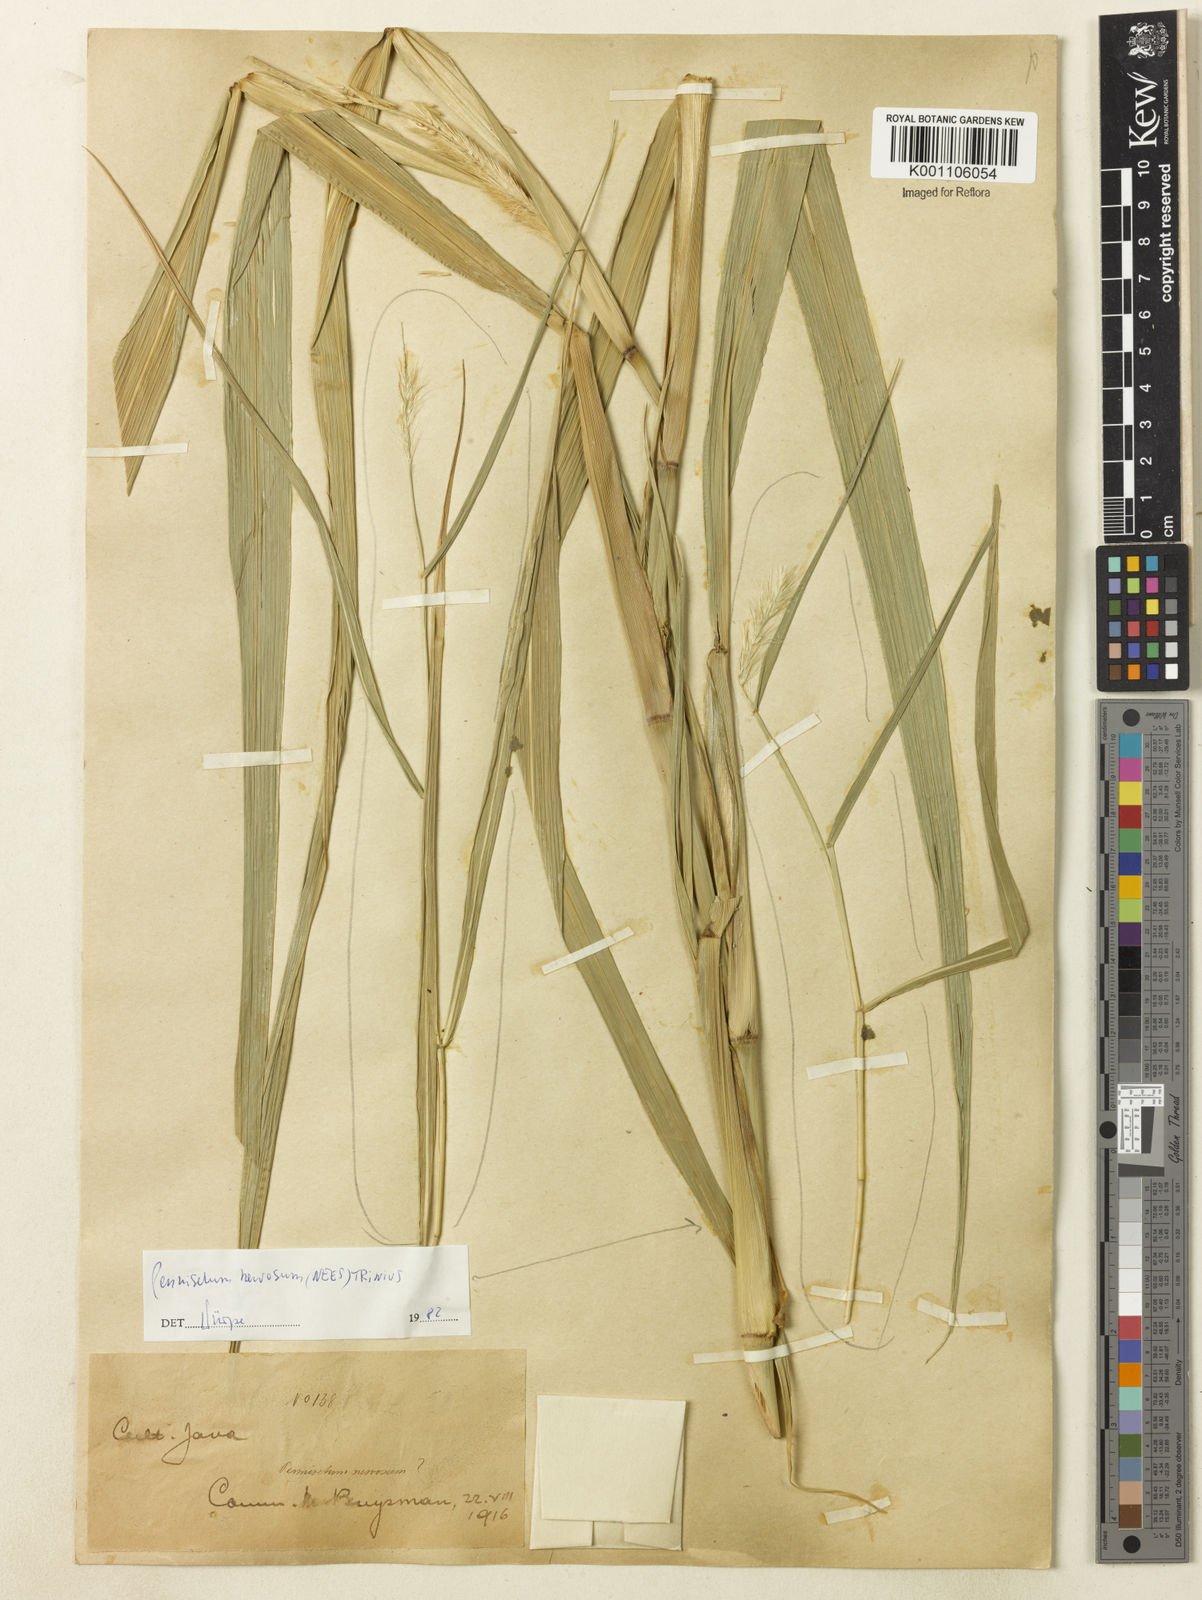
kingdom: Plantae
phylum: Tracheophyta
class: Liliopsida
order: Poales
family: Poaceae
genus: Cenchrus
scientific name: Cenchrus nervosus
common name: Bentspike fountaingrass
